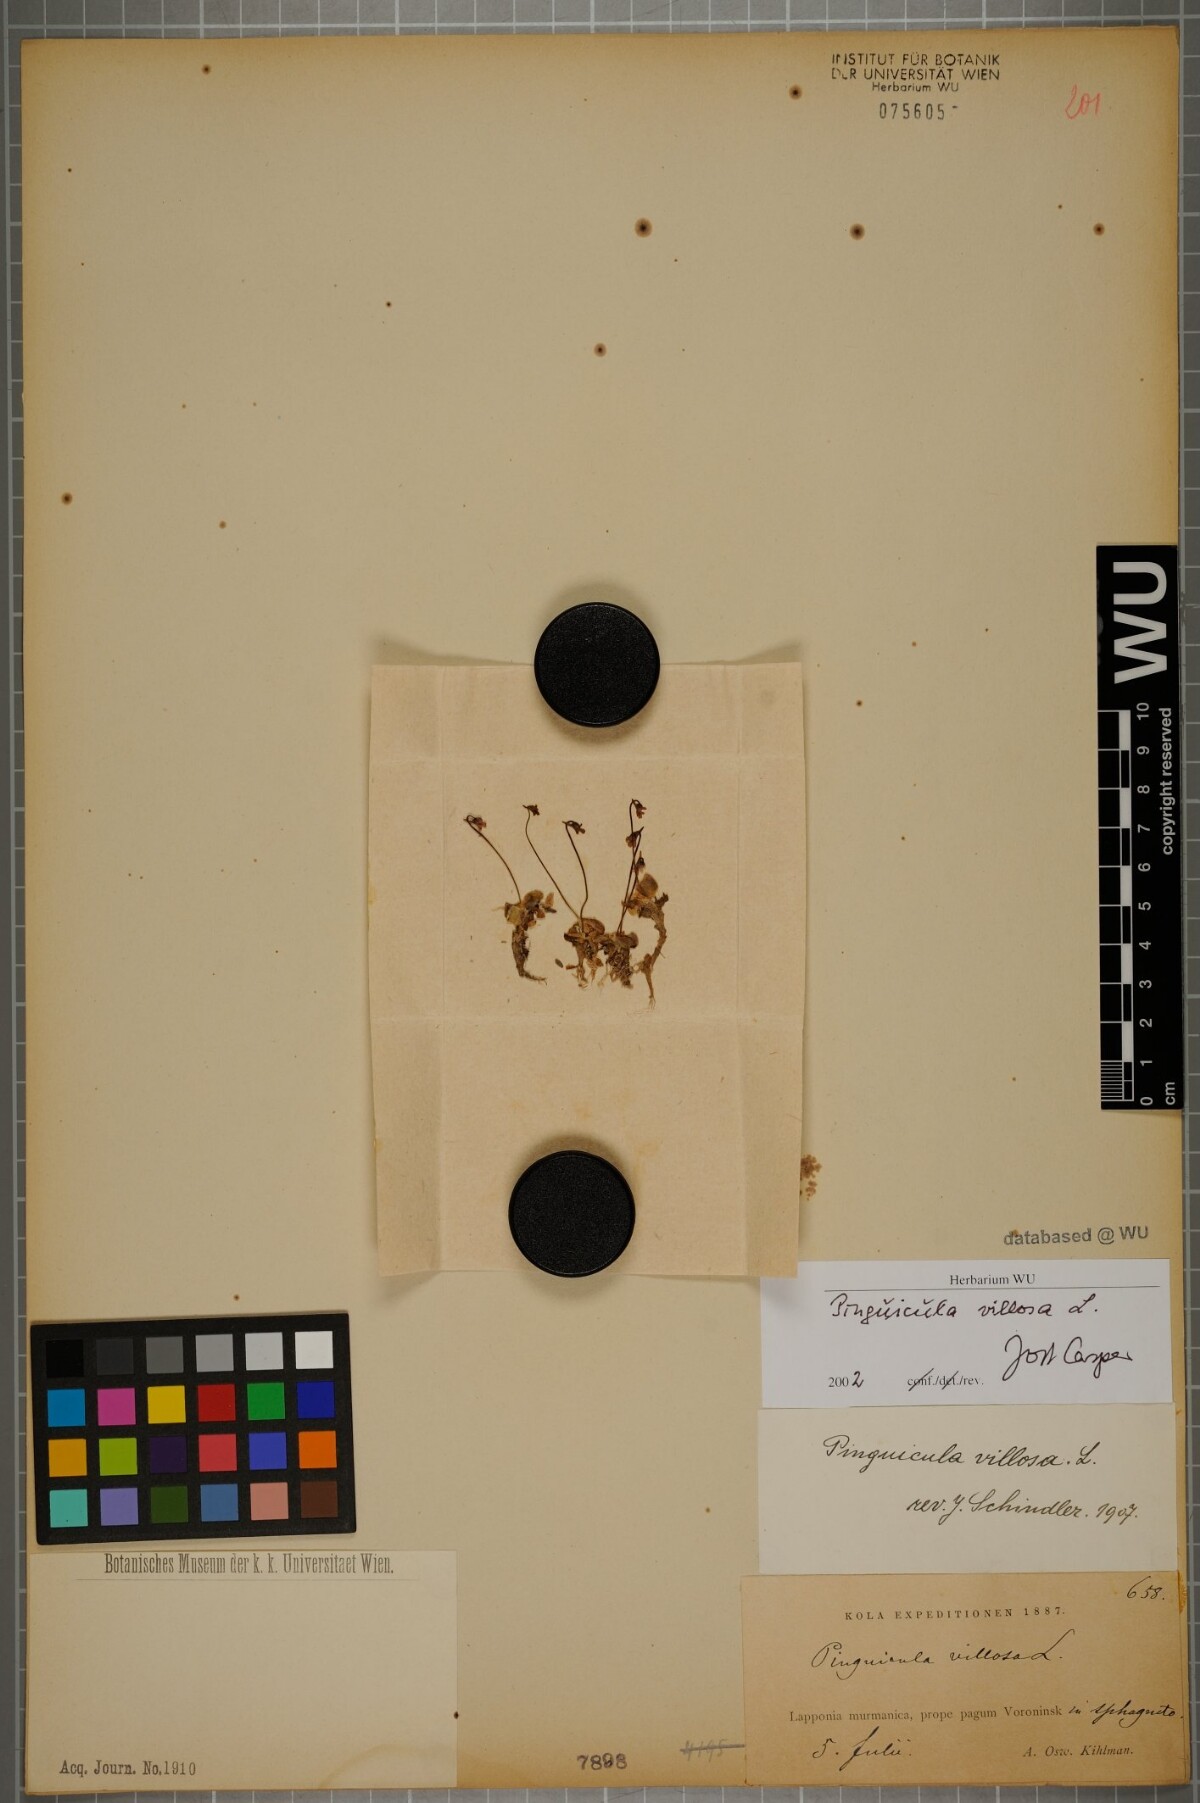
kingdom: Plantae
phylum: Tracheophyta
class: Magnoliopsida
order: Lamiales
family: Lentibulariaceae
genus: Pinguicula
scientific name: Pinguicula villosa
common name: Hairy butterwort
